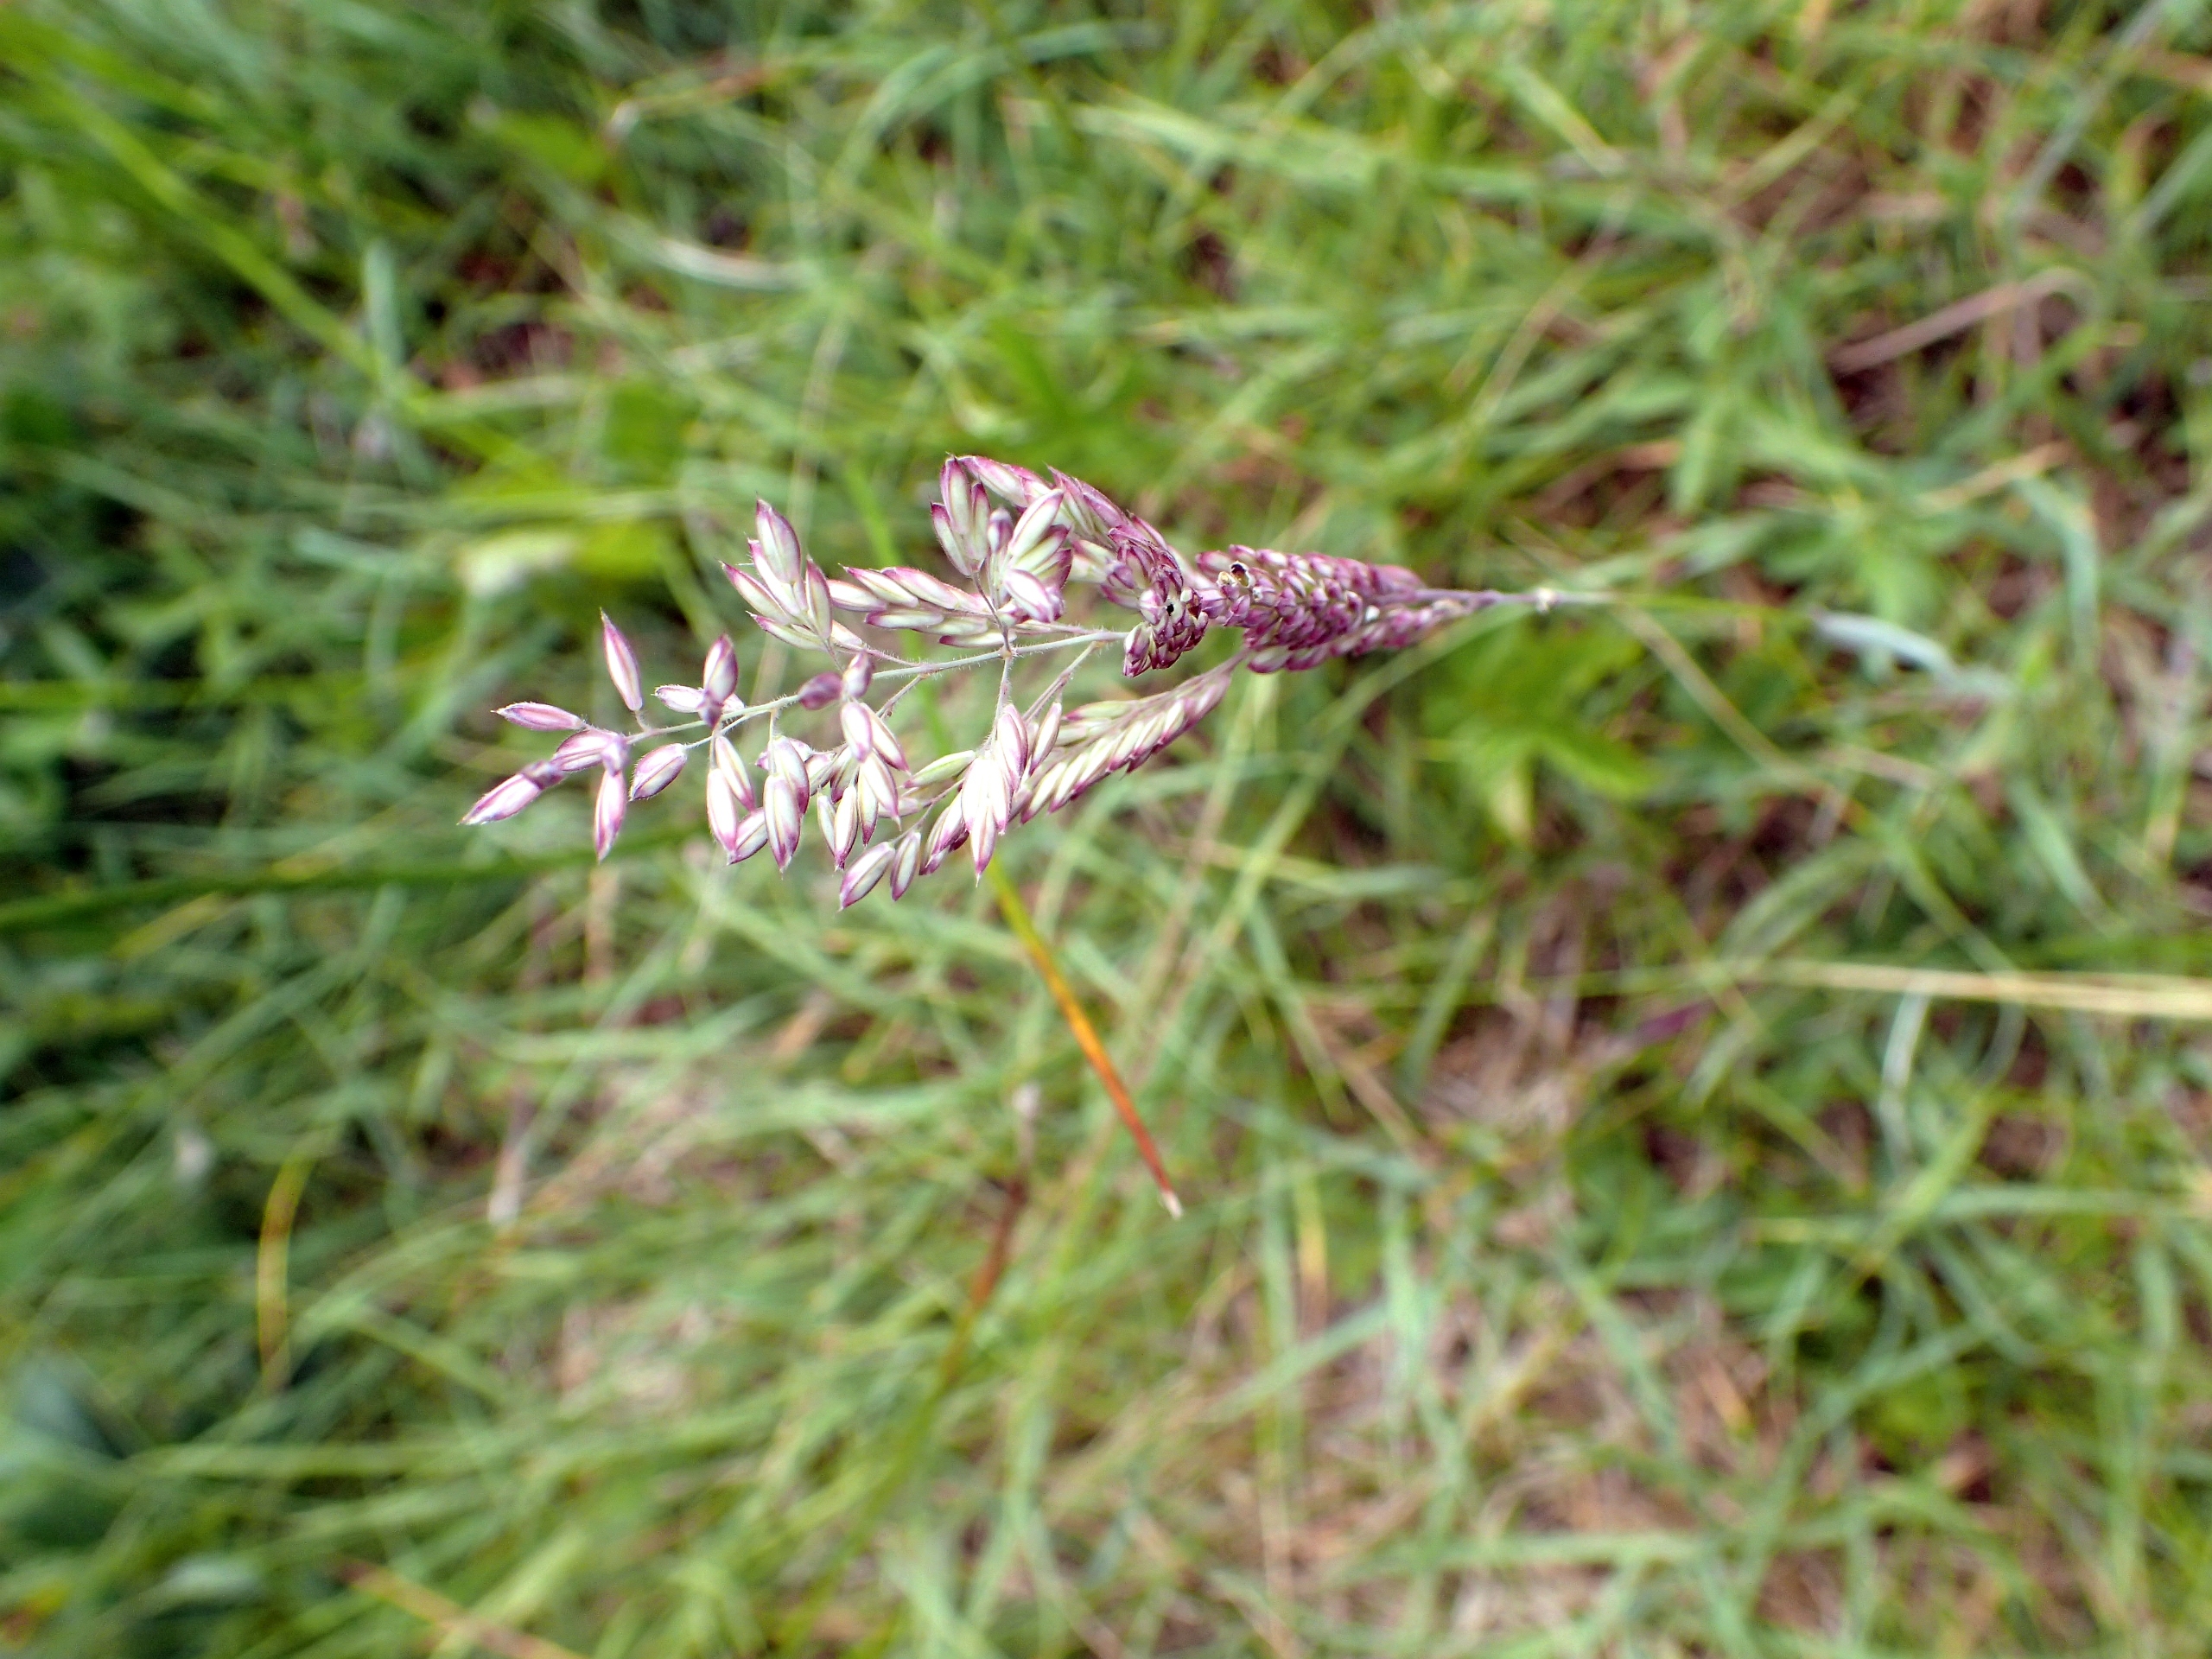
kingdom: Plantae
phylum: Tracheophyta
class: Liliopsida
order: Poales
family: Poaceae
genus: Holcus
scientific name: Holcus lanatus
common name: Fløjlsgræs
